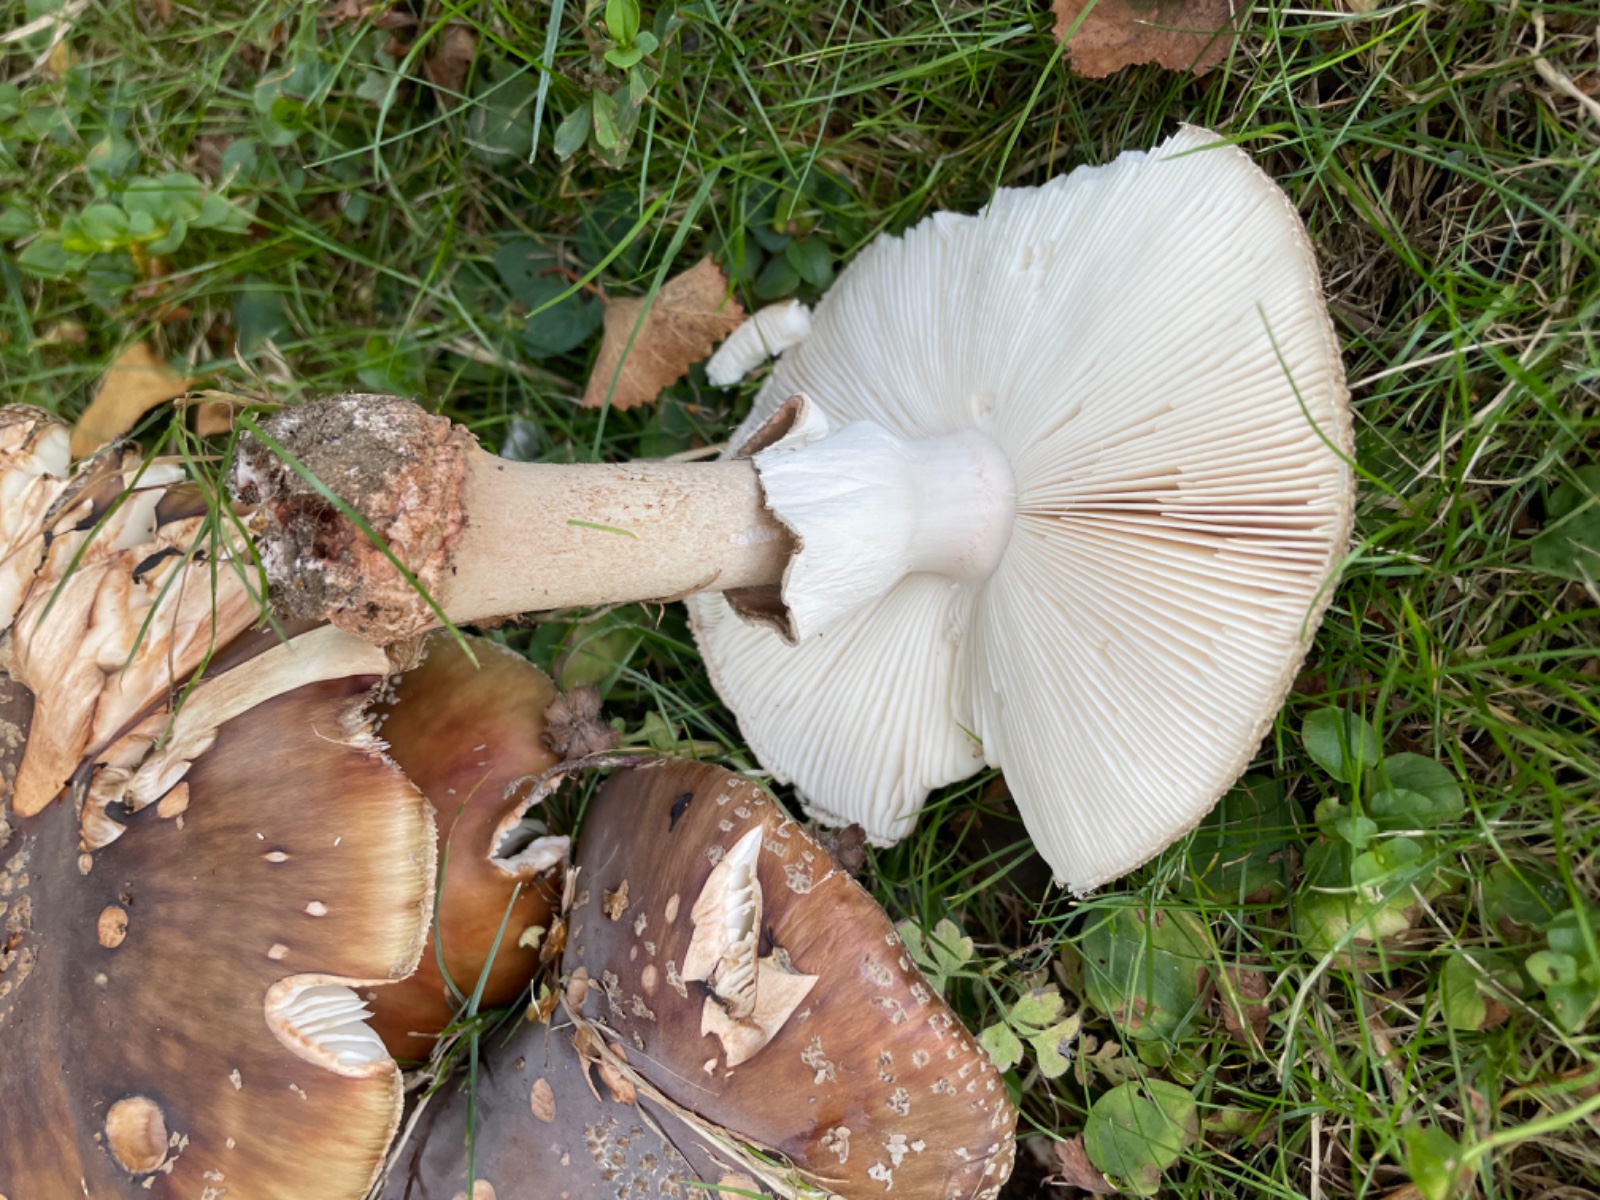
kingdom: Fungi
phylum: Basidiomycota
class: Agaricomycetes
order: Agaricales
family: Amanitaceae
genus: Amanita
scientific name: Amanita rubescens
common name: rødmende fluesvamp
